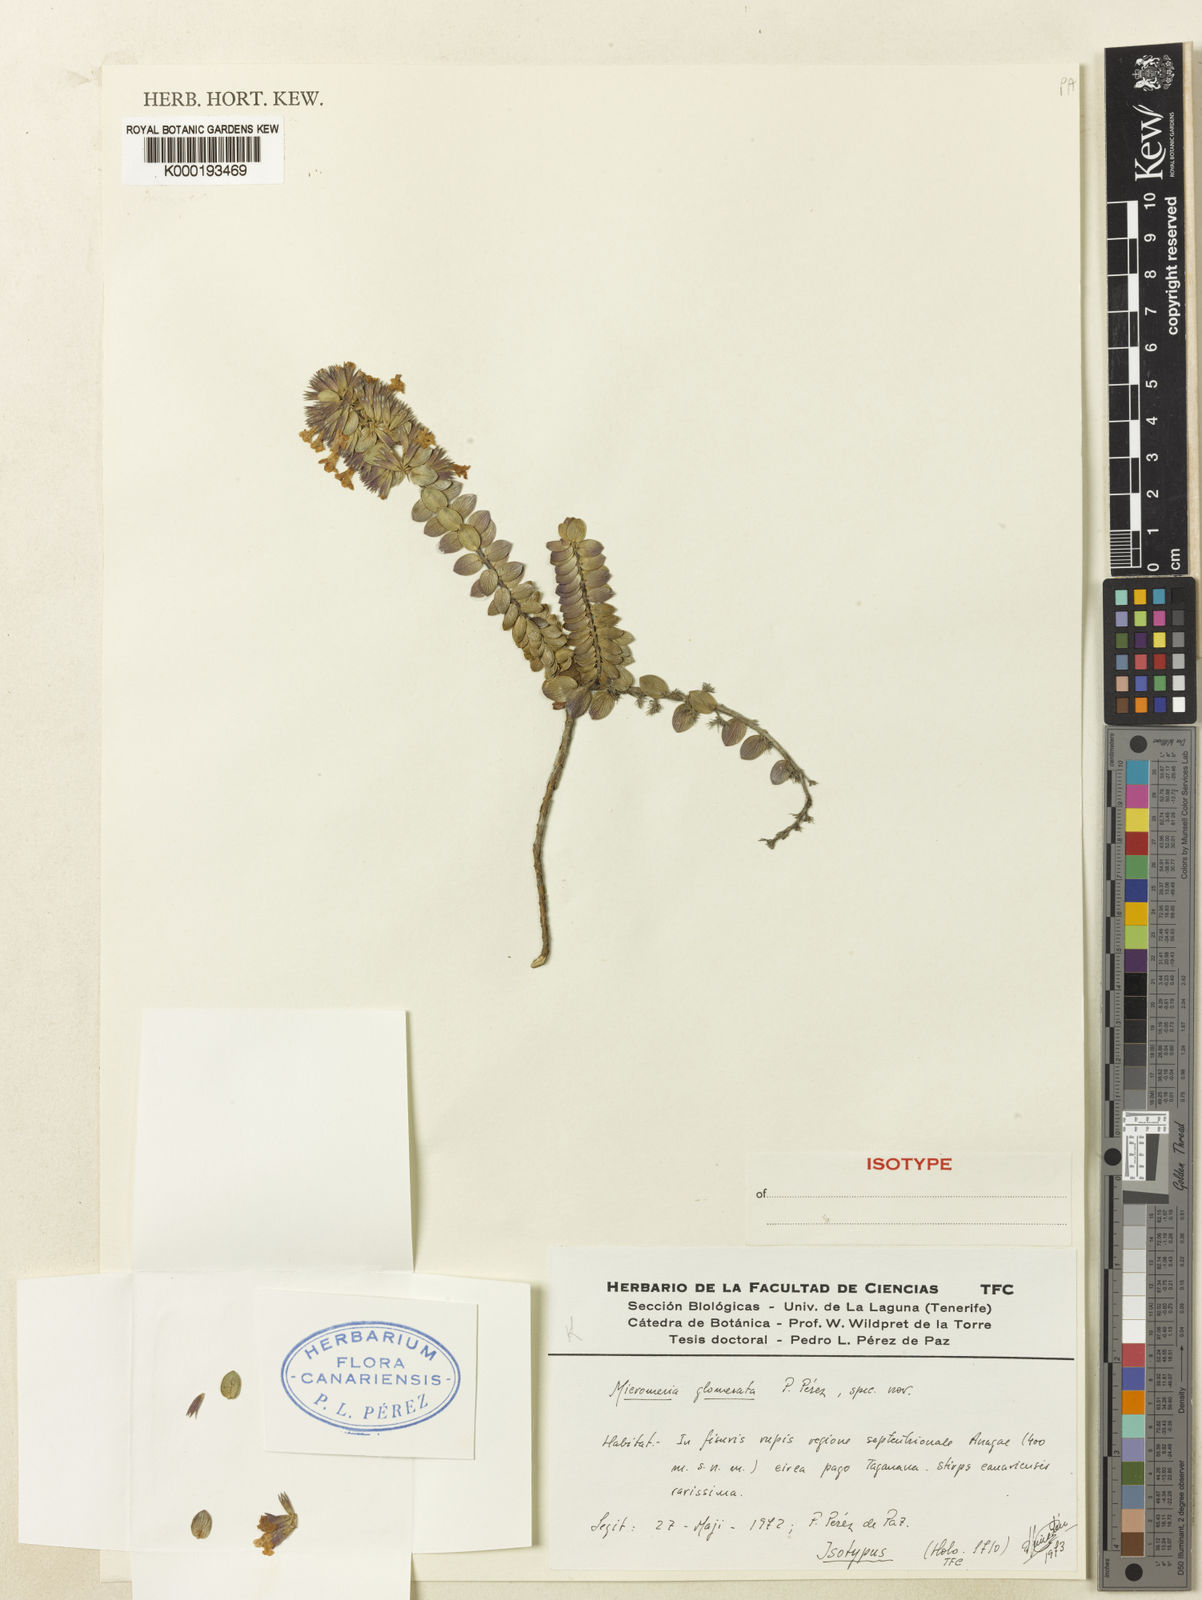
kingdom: Plantae
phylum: Tracheophyta
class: Magnoliopsida
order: Lamiales
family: Lamiaceae
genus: Micromeria
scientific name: Micromeria
